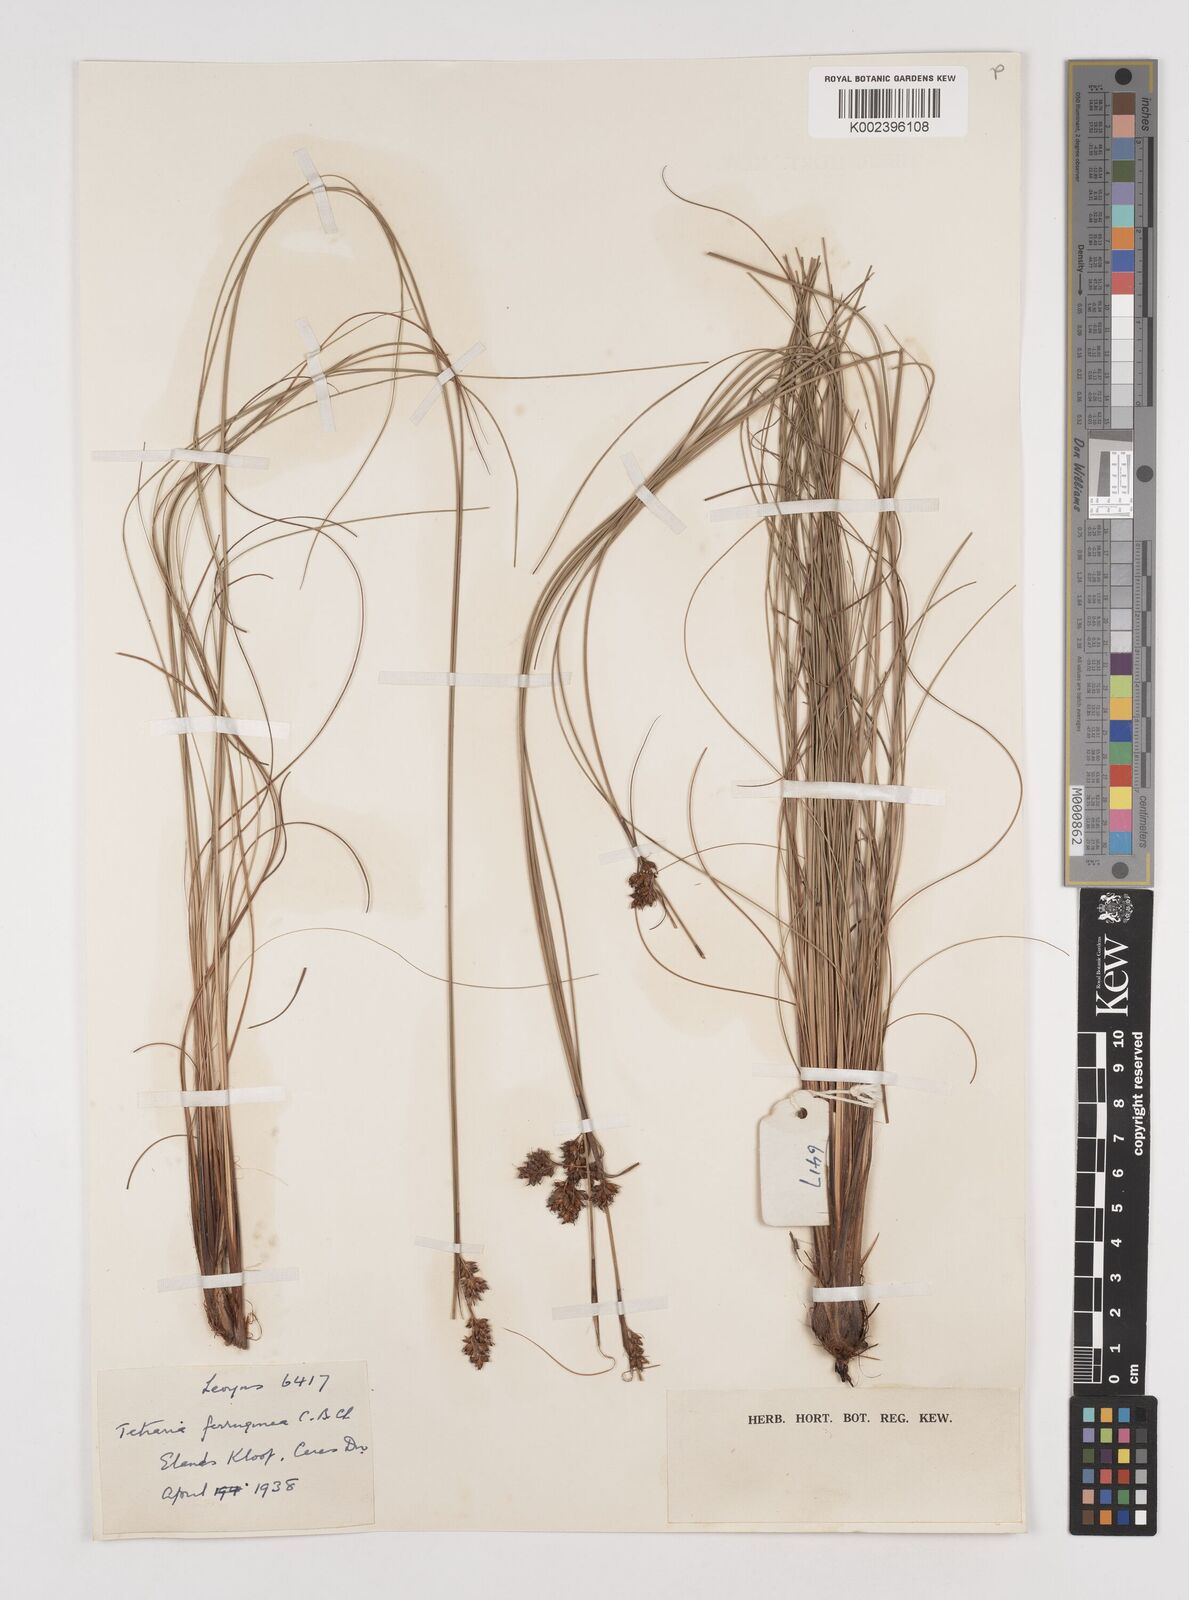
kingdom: Plantae
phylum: Tracheophyta
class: Liliopsida
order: Poales
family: Cyperaceae
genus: Tetraria
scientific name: Tetraria ferruginea
